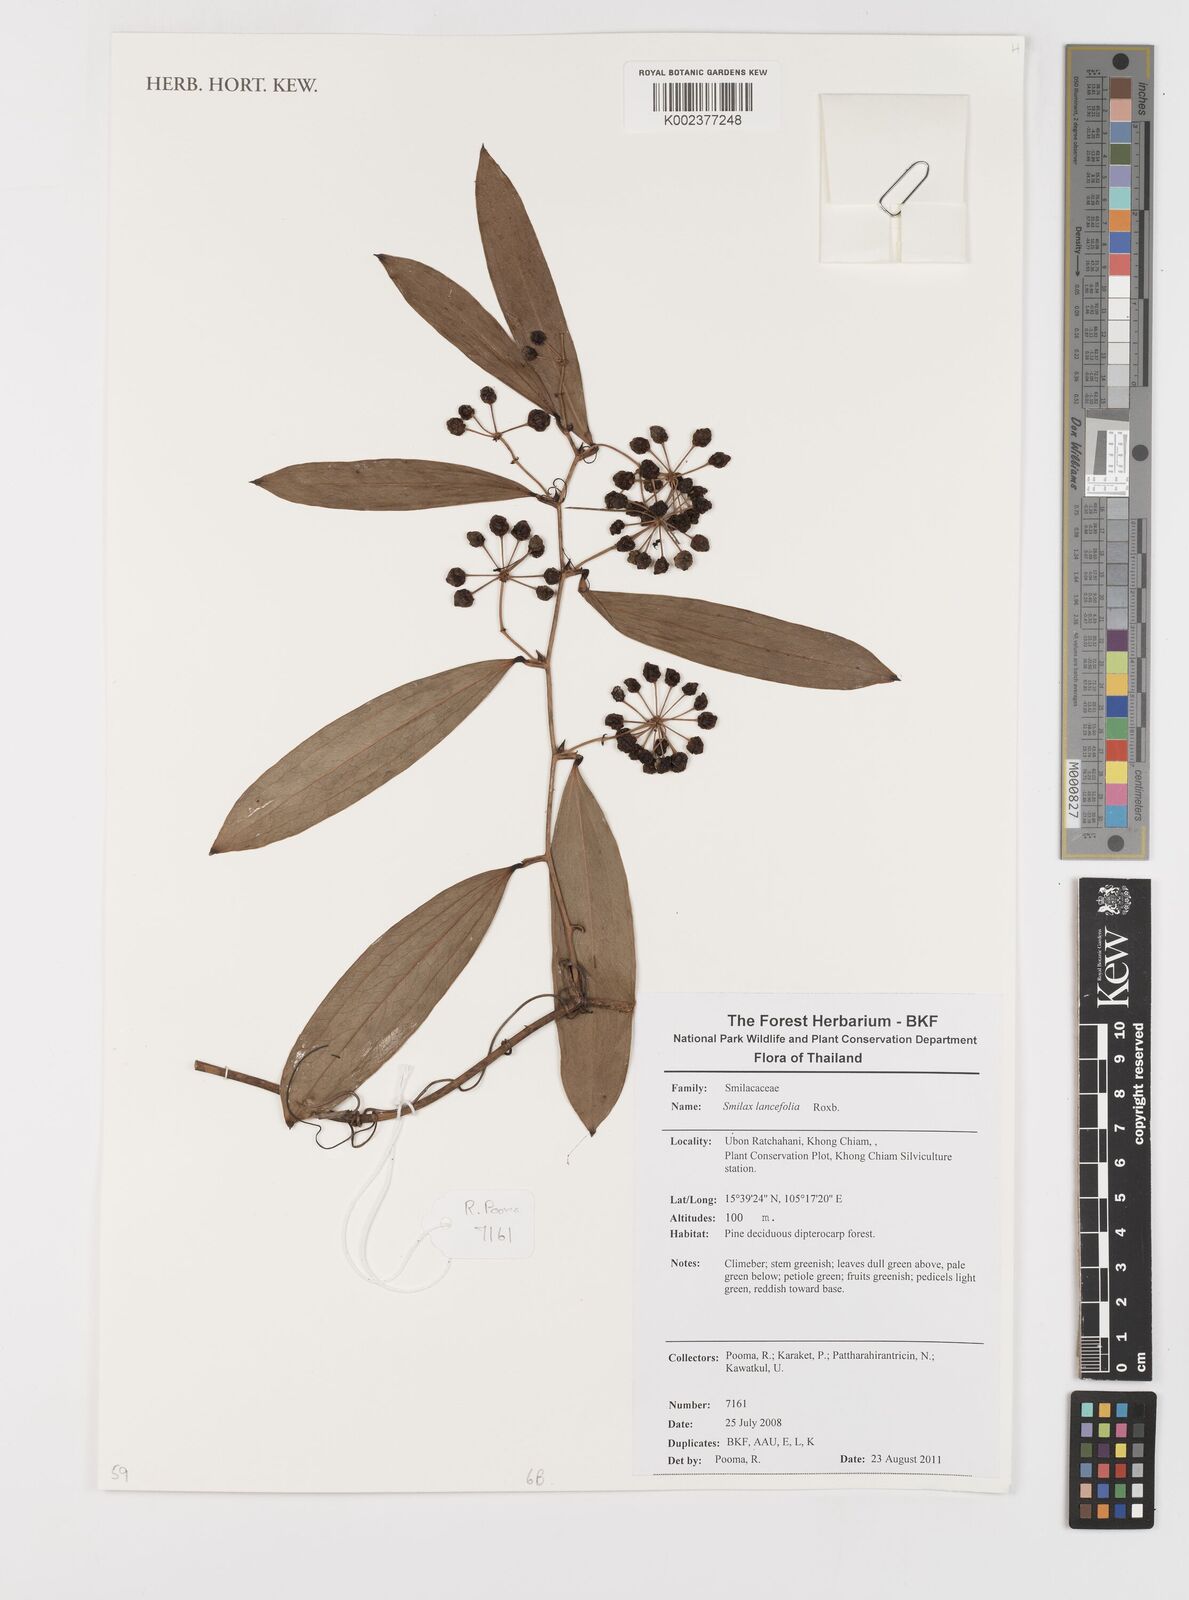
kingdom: Plantae
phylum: Tracheophyta
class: Liliopsida
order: Liliales
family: Smilacaceae
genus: Smilax
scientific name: Smilax lanceifolia
